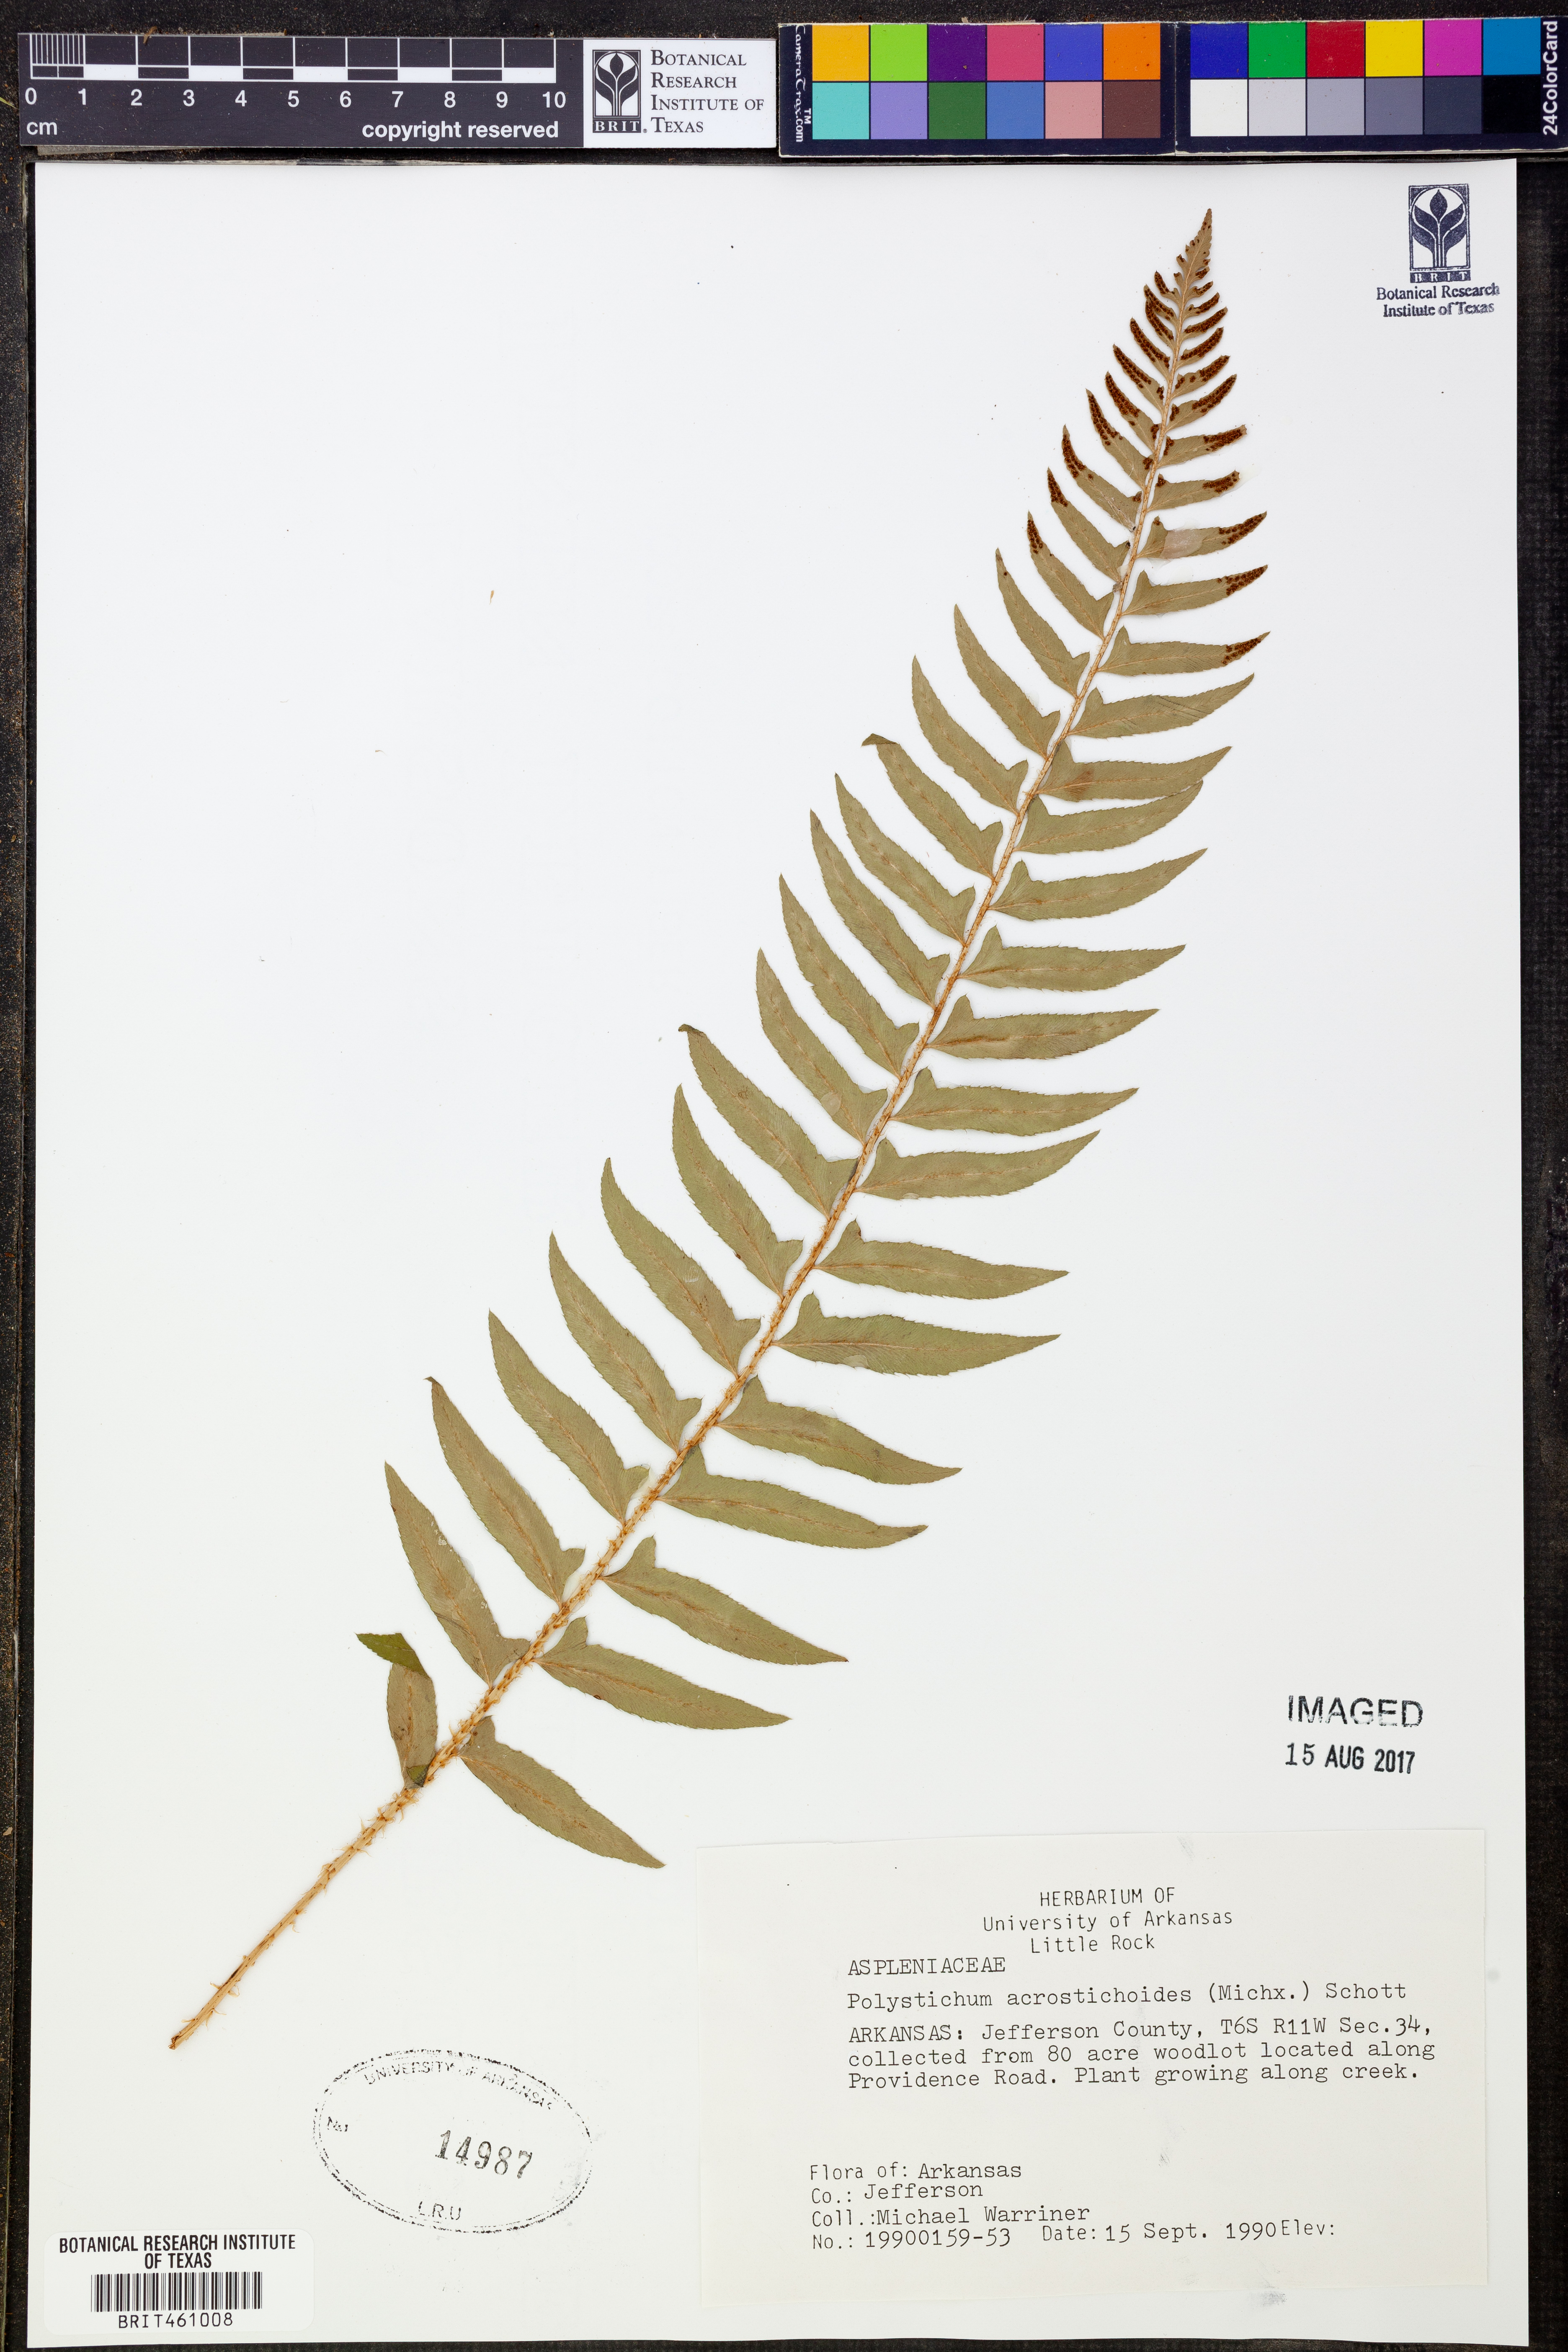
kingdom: Plantae
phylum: Tracheophyta
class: Polypodiopsida
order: Polypodiales
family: Dryopteridaceae
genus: Polystichum
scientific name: Polystichum acrostichoides
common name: Christmas fern
